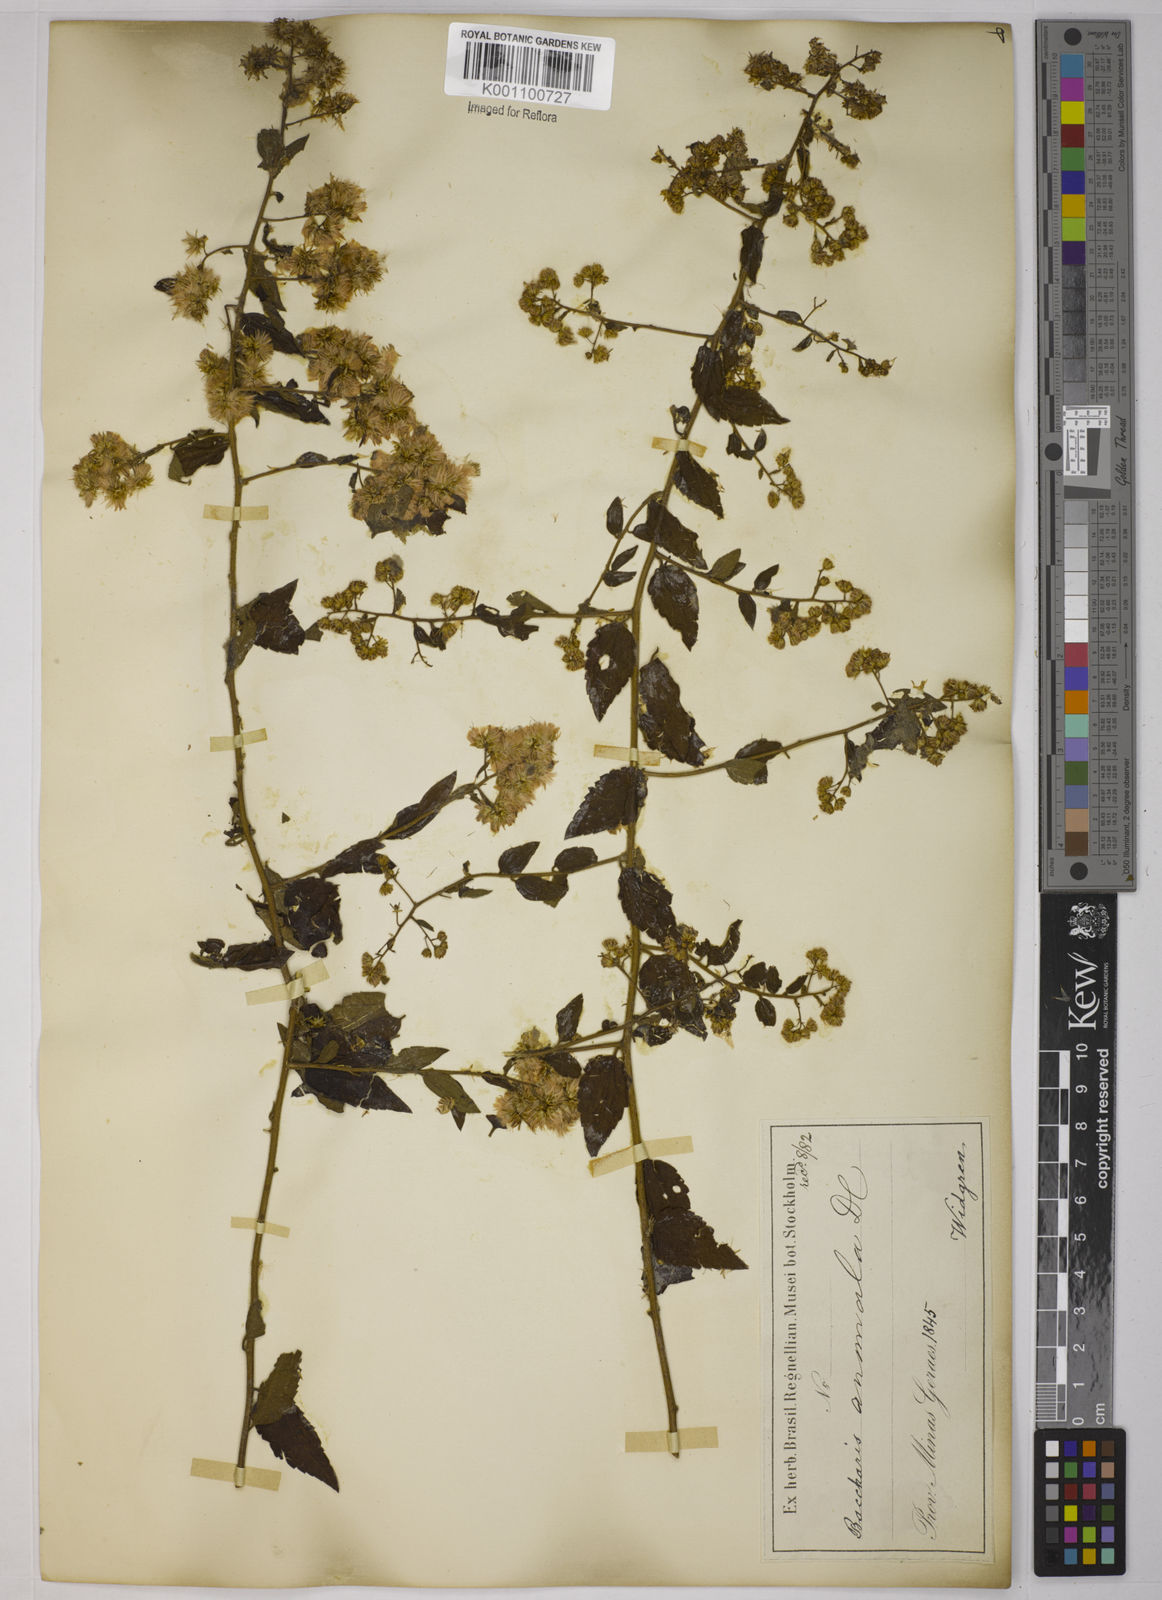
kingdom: Plantae
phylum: Tracheophyta
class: Magnoliopsida
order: Asterales
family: Asteraceae
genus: Baccharis
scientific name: Baccharis anomala
